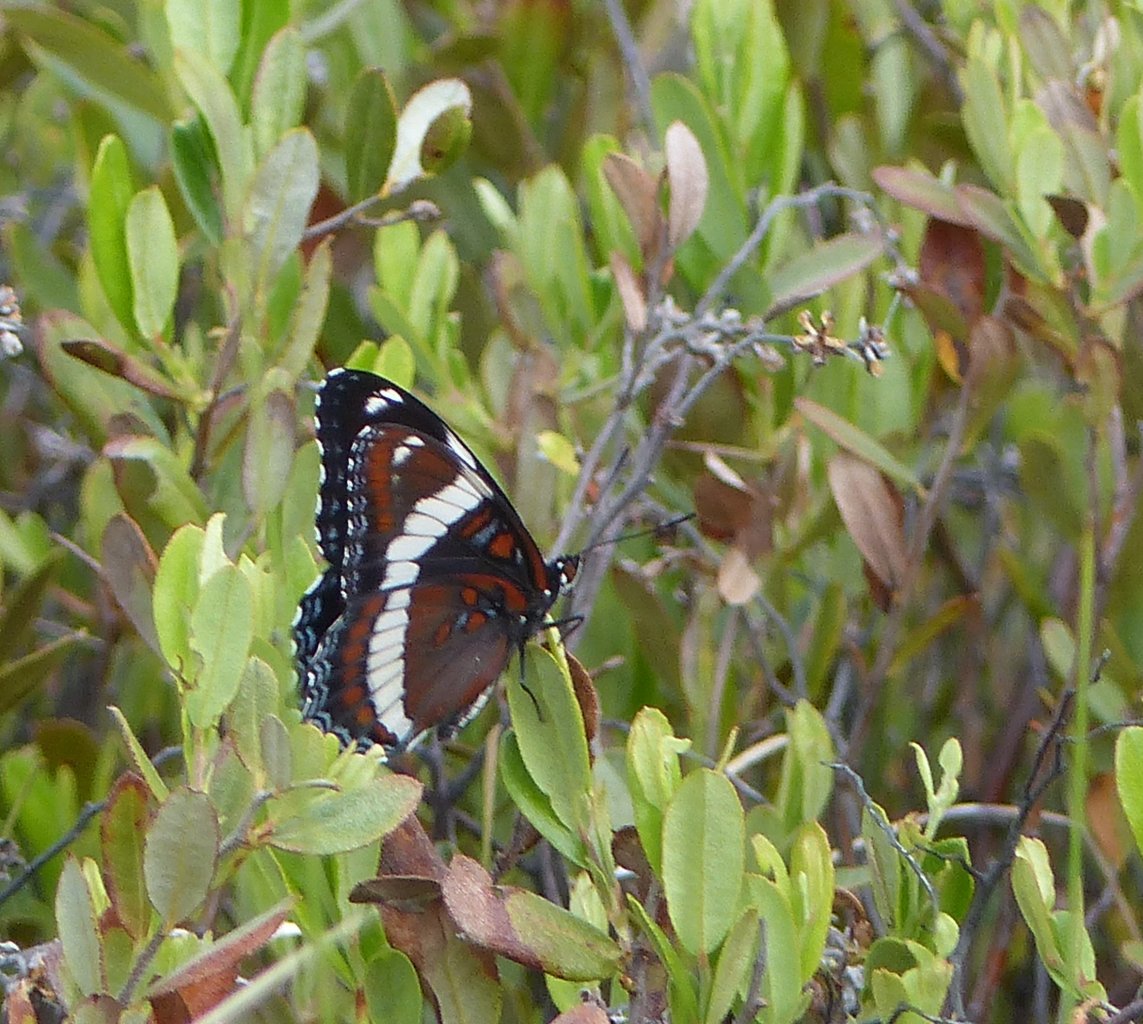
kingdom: Animalia
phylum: Arthropoda
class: Insecta
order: Lepidoptera
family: Nymphalidae
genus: Limenitis
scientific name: Limenitis arthemis
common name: Red-spotted Admiral
